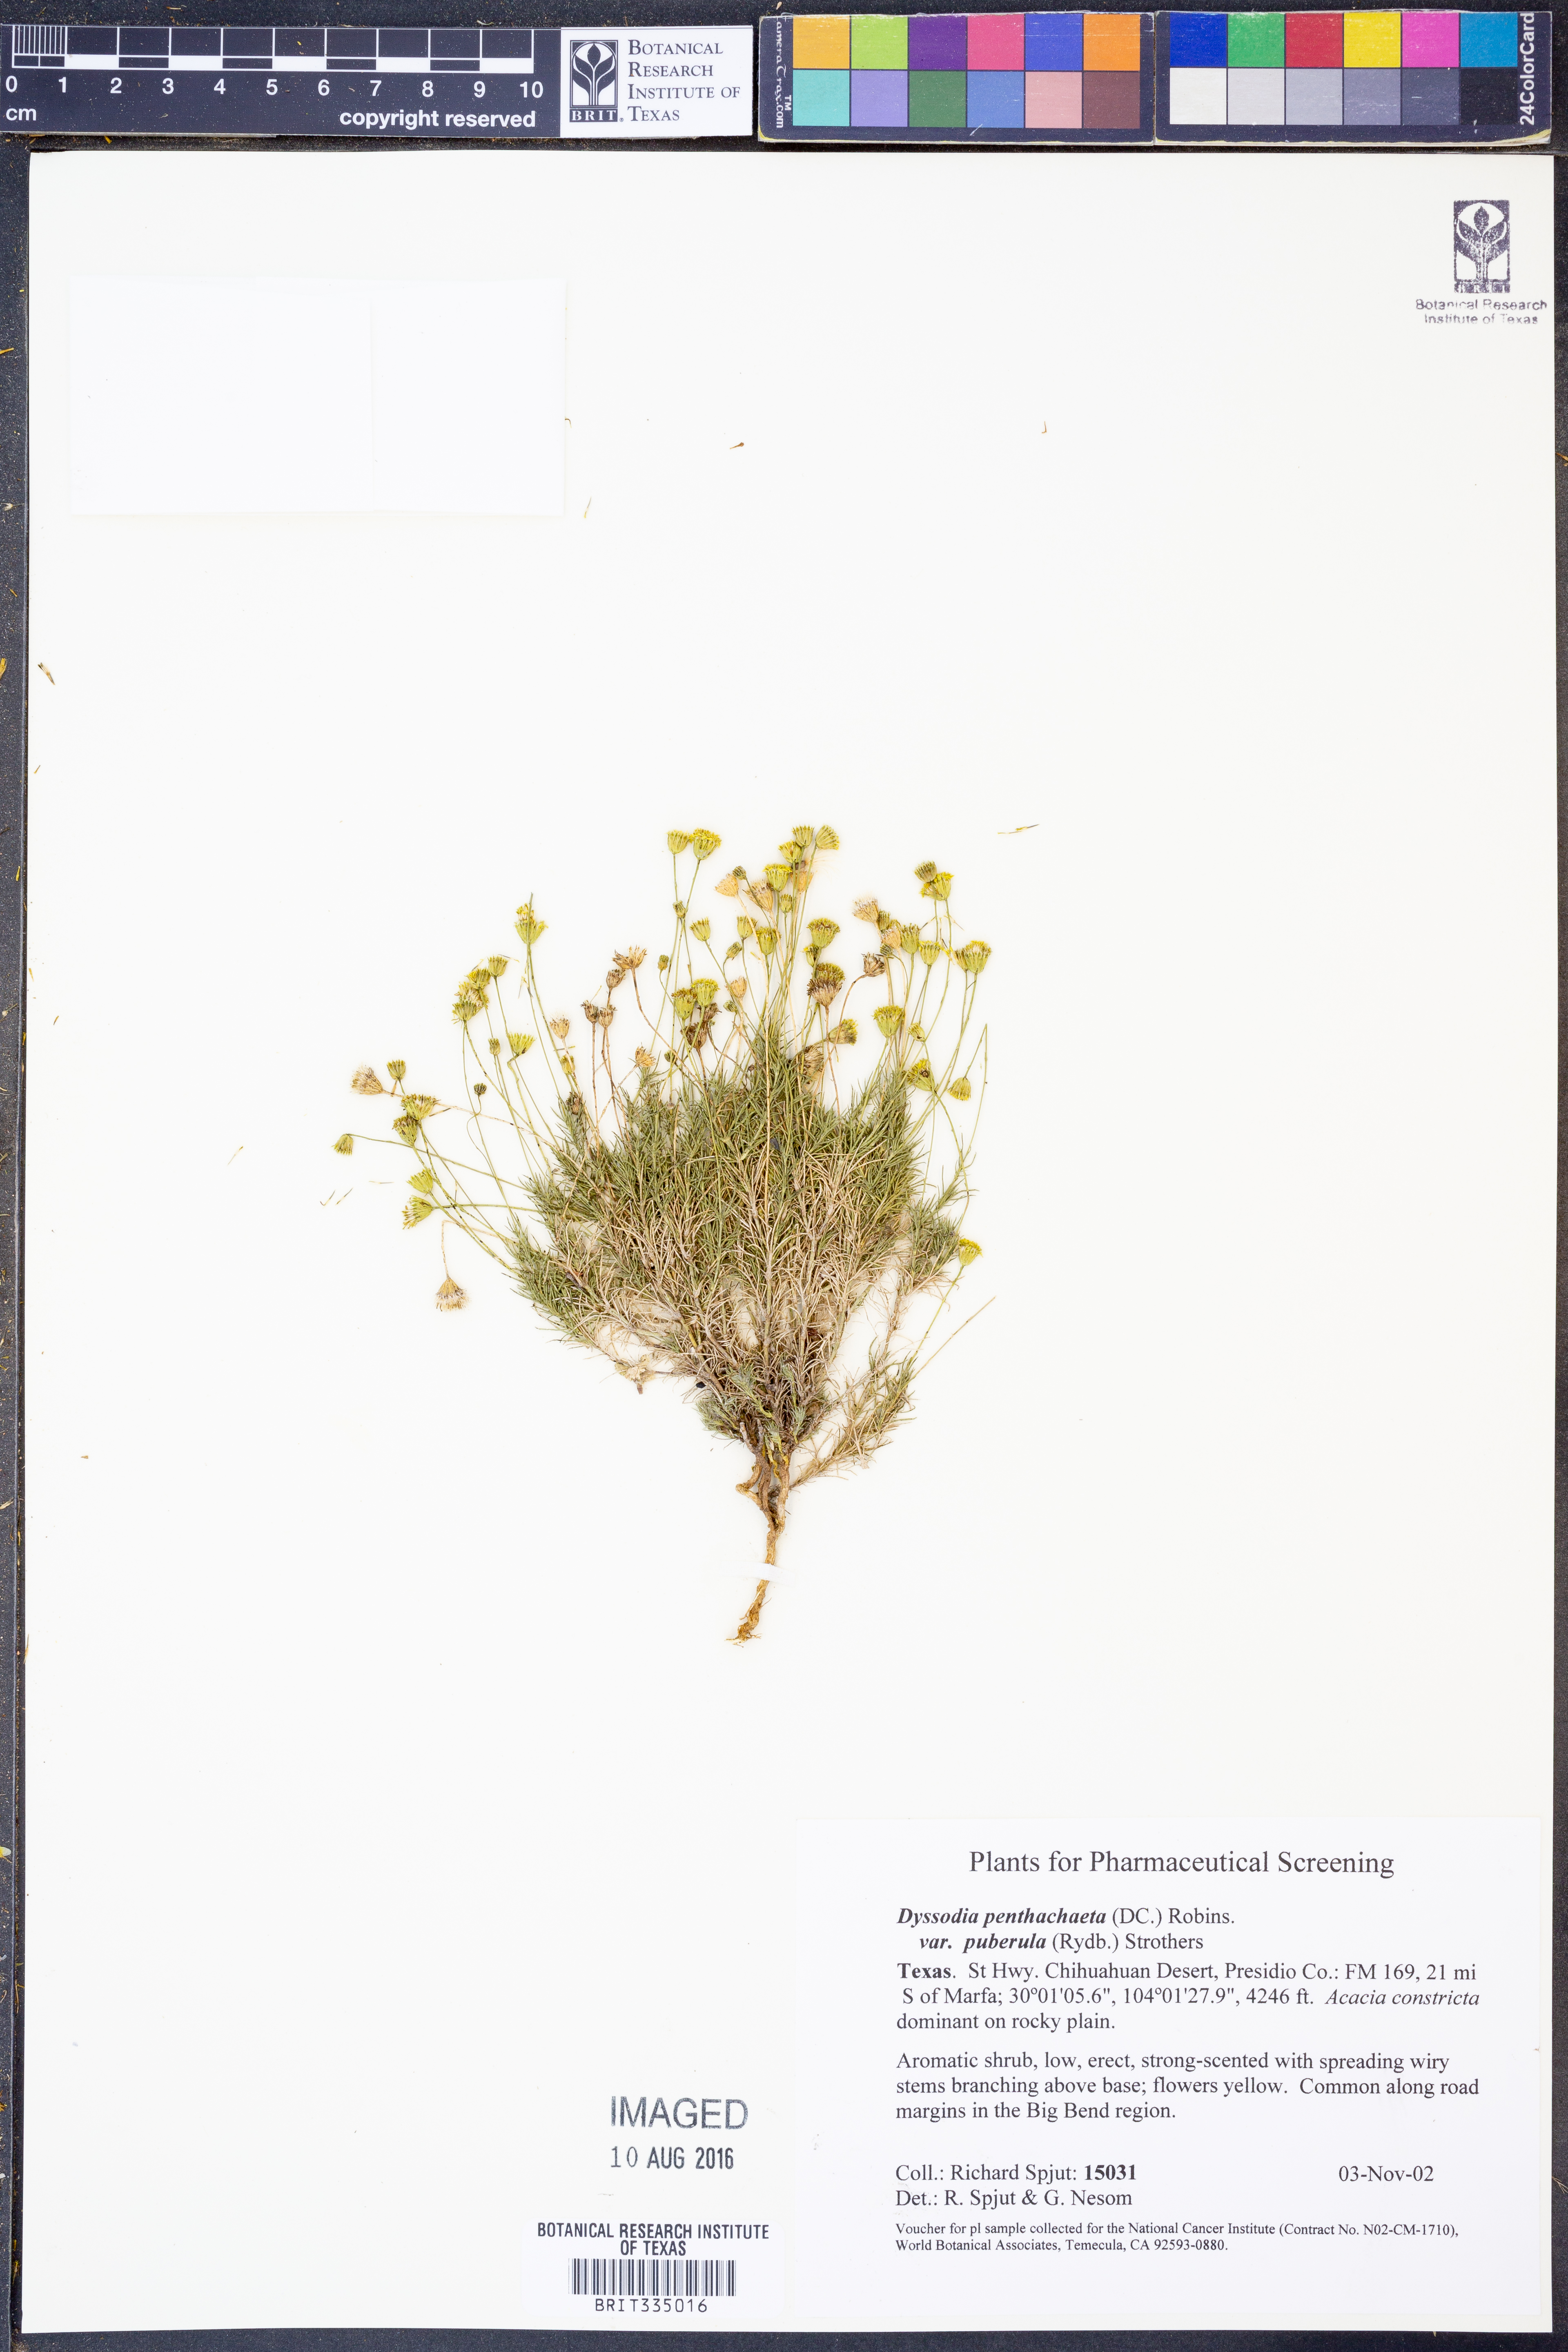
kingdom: Plantae
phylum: Tracheophyta
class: Magnoliopsida
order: Asterales
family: Asteraceae
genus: Thymophylla
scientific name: Thymophylla pentachaeta
